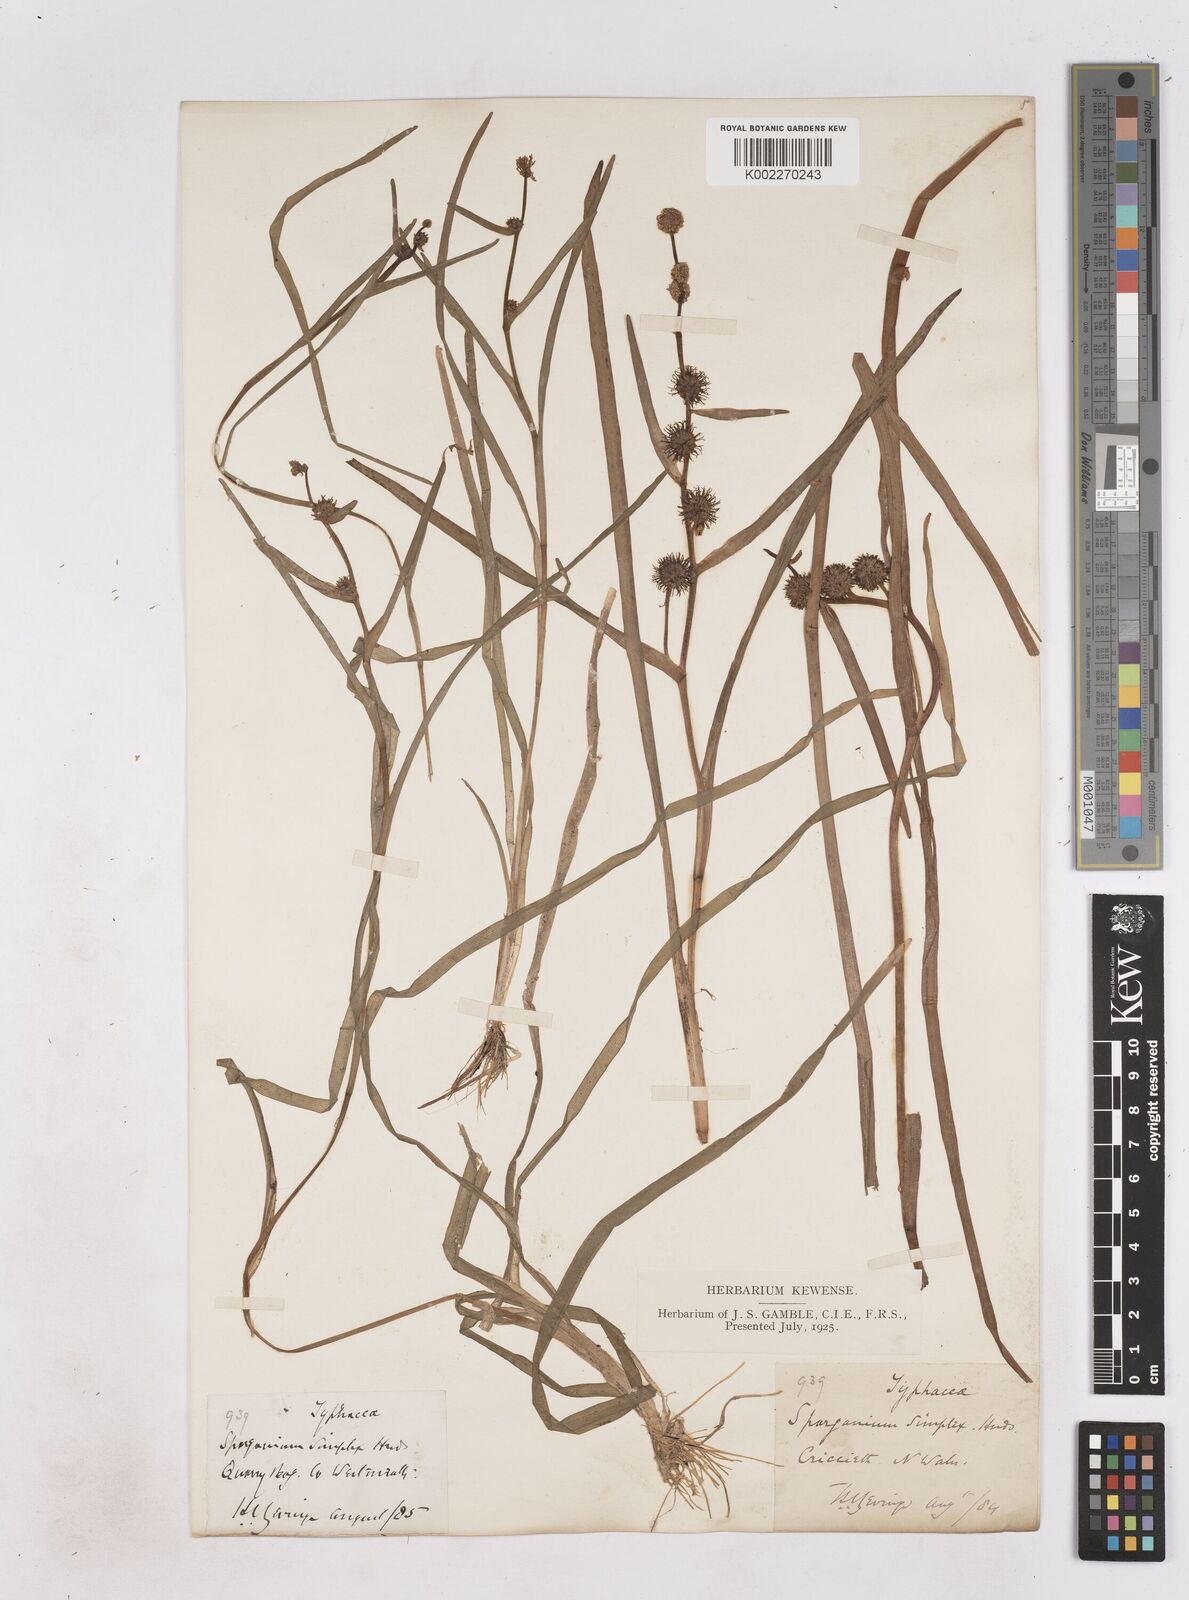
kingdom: Plantae
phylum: Tracheophyta
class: Liliopsida
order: Poales
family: Typhaceae
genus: Sparganium
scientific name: Sparganium emersum
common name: Unbranched bur-reed
